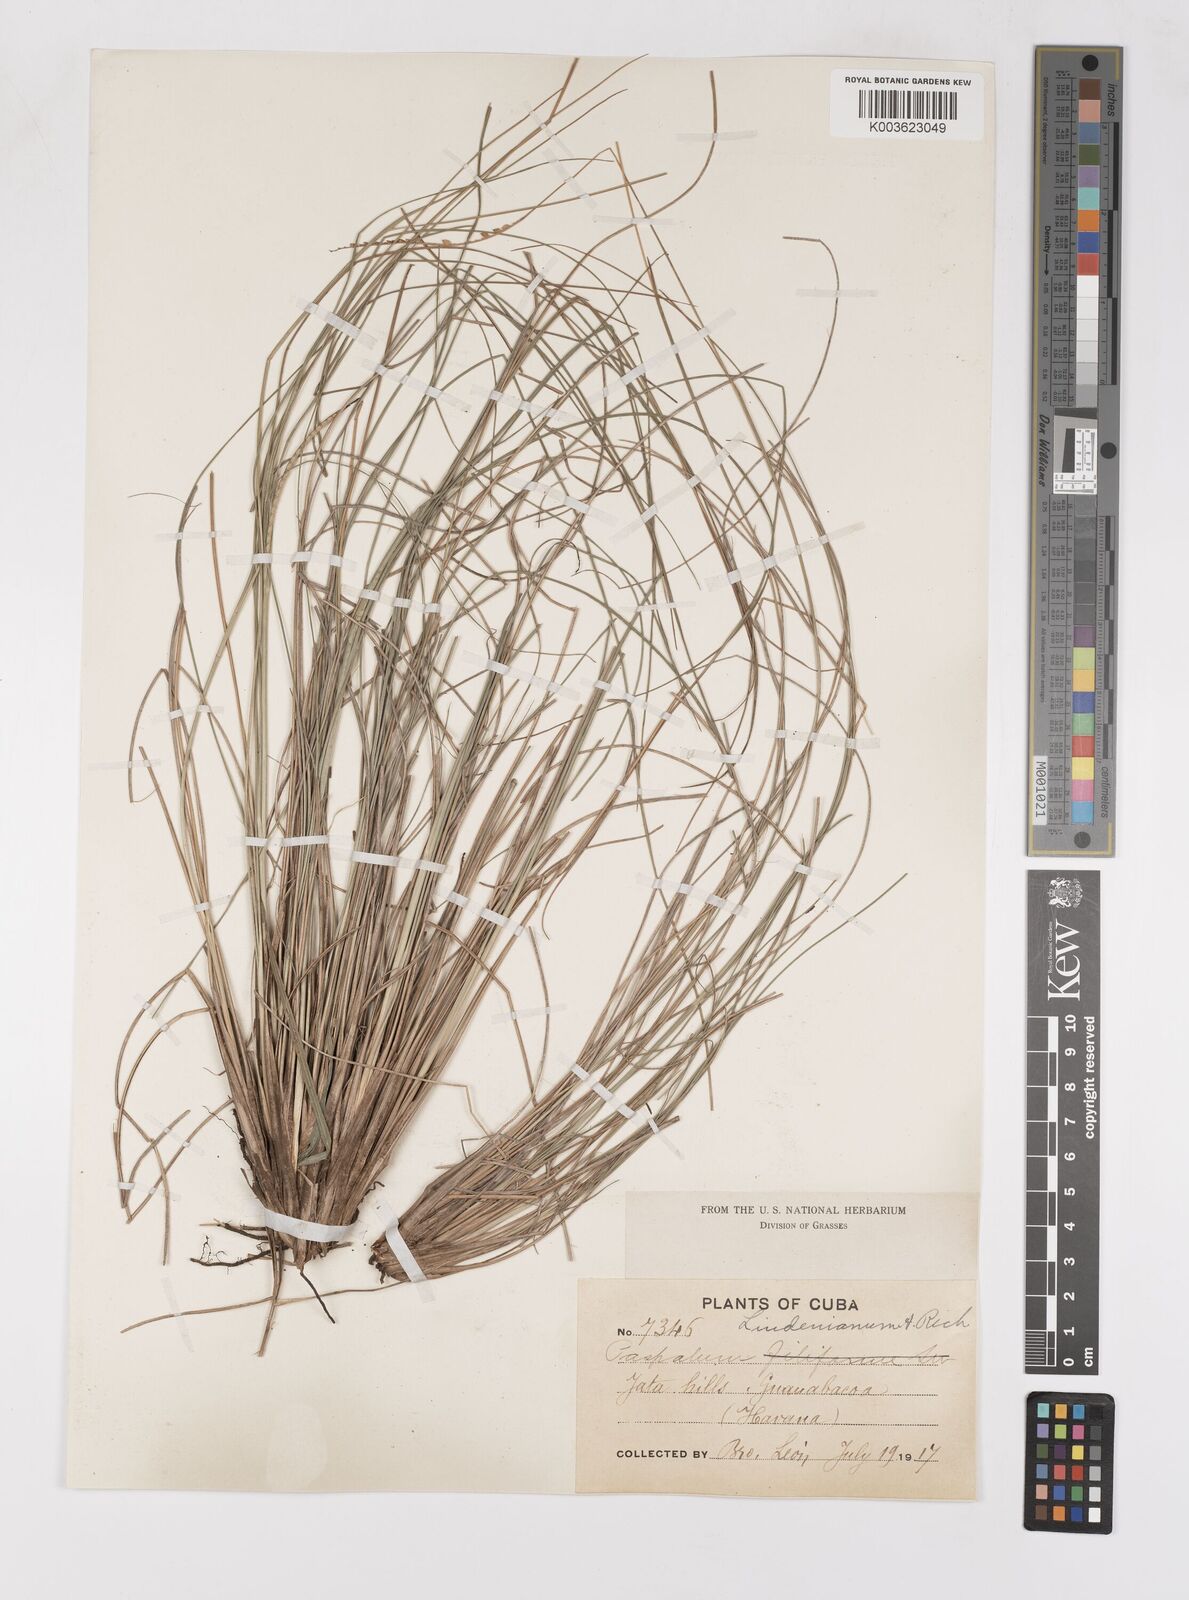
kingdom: Plantae
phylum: Tracheophyta
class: Liliopsida
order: Poales
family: Poaceae
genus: Paspalum
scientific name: Paspalum lindenianum
